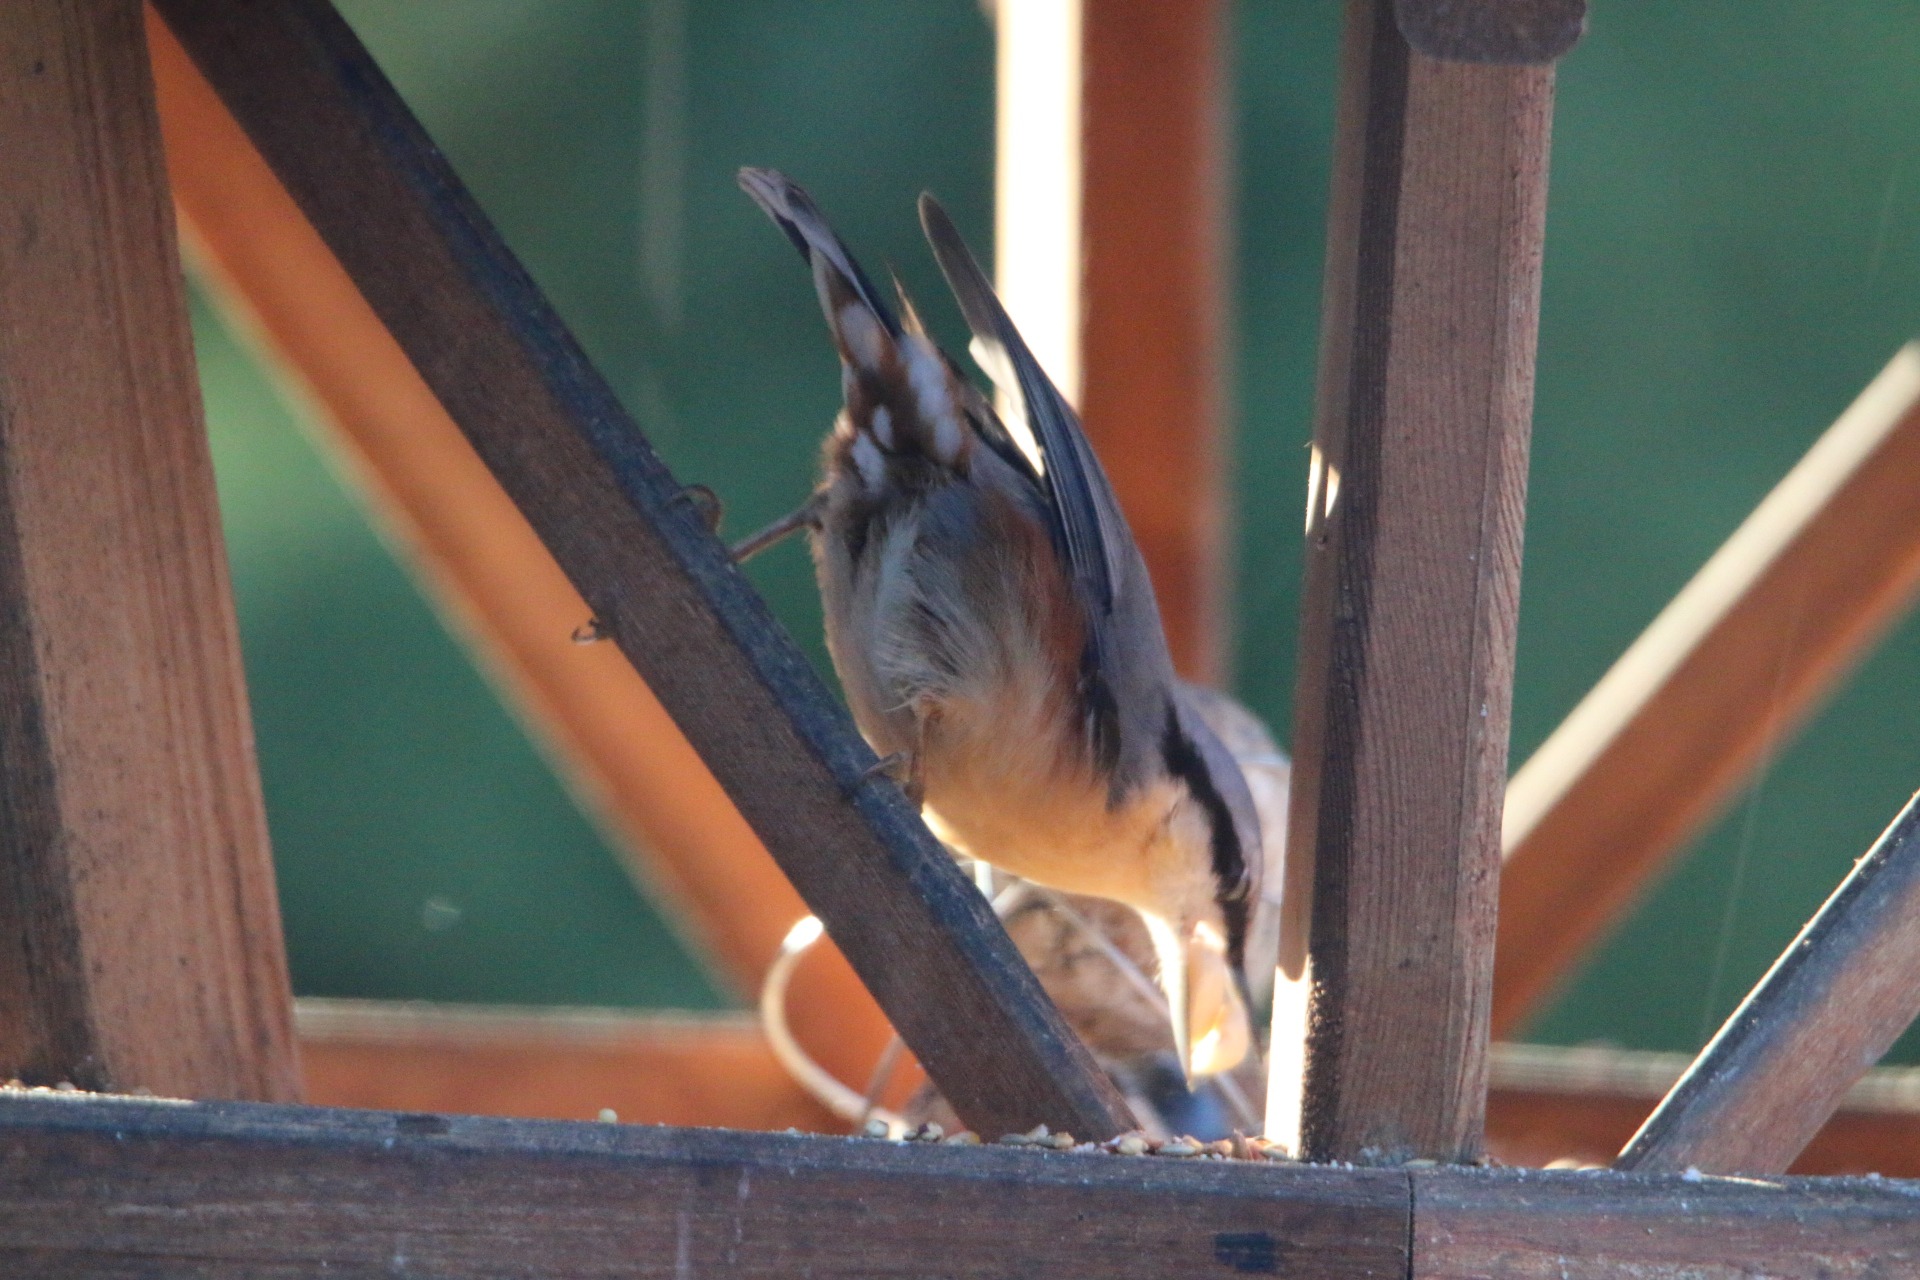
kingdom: Animalia
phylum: Chordata
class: Aves
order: Passeriformes
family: Sittidae
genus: Sitta
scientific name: Sitta europaea
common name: Spætmejse
